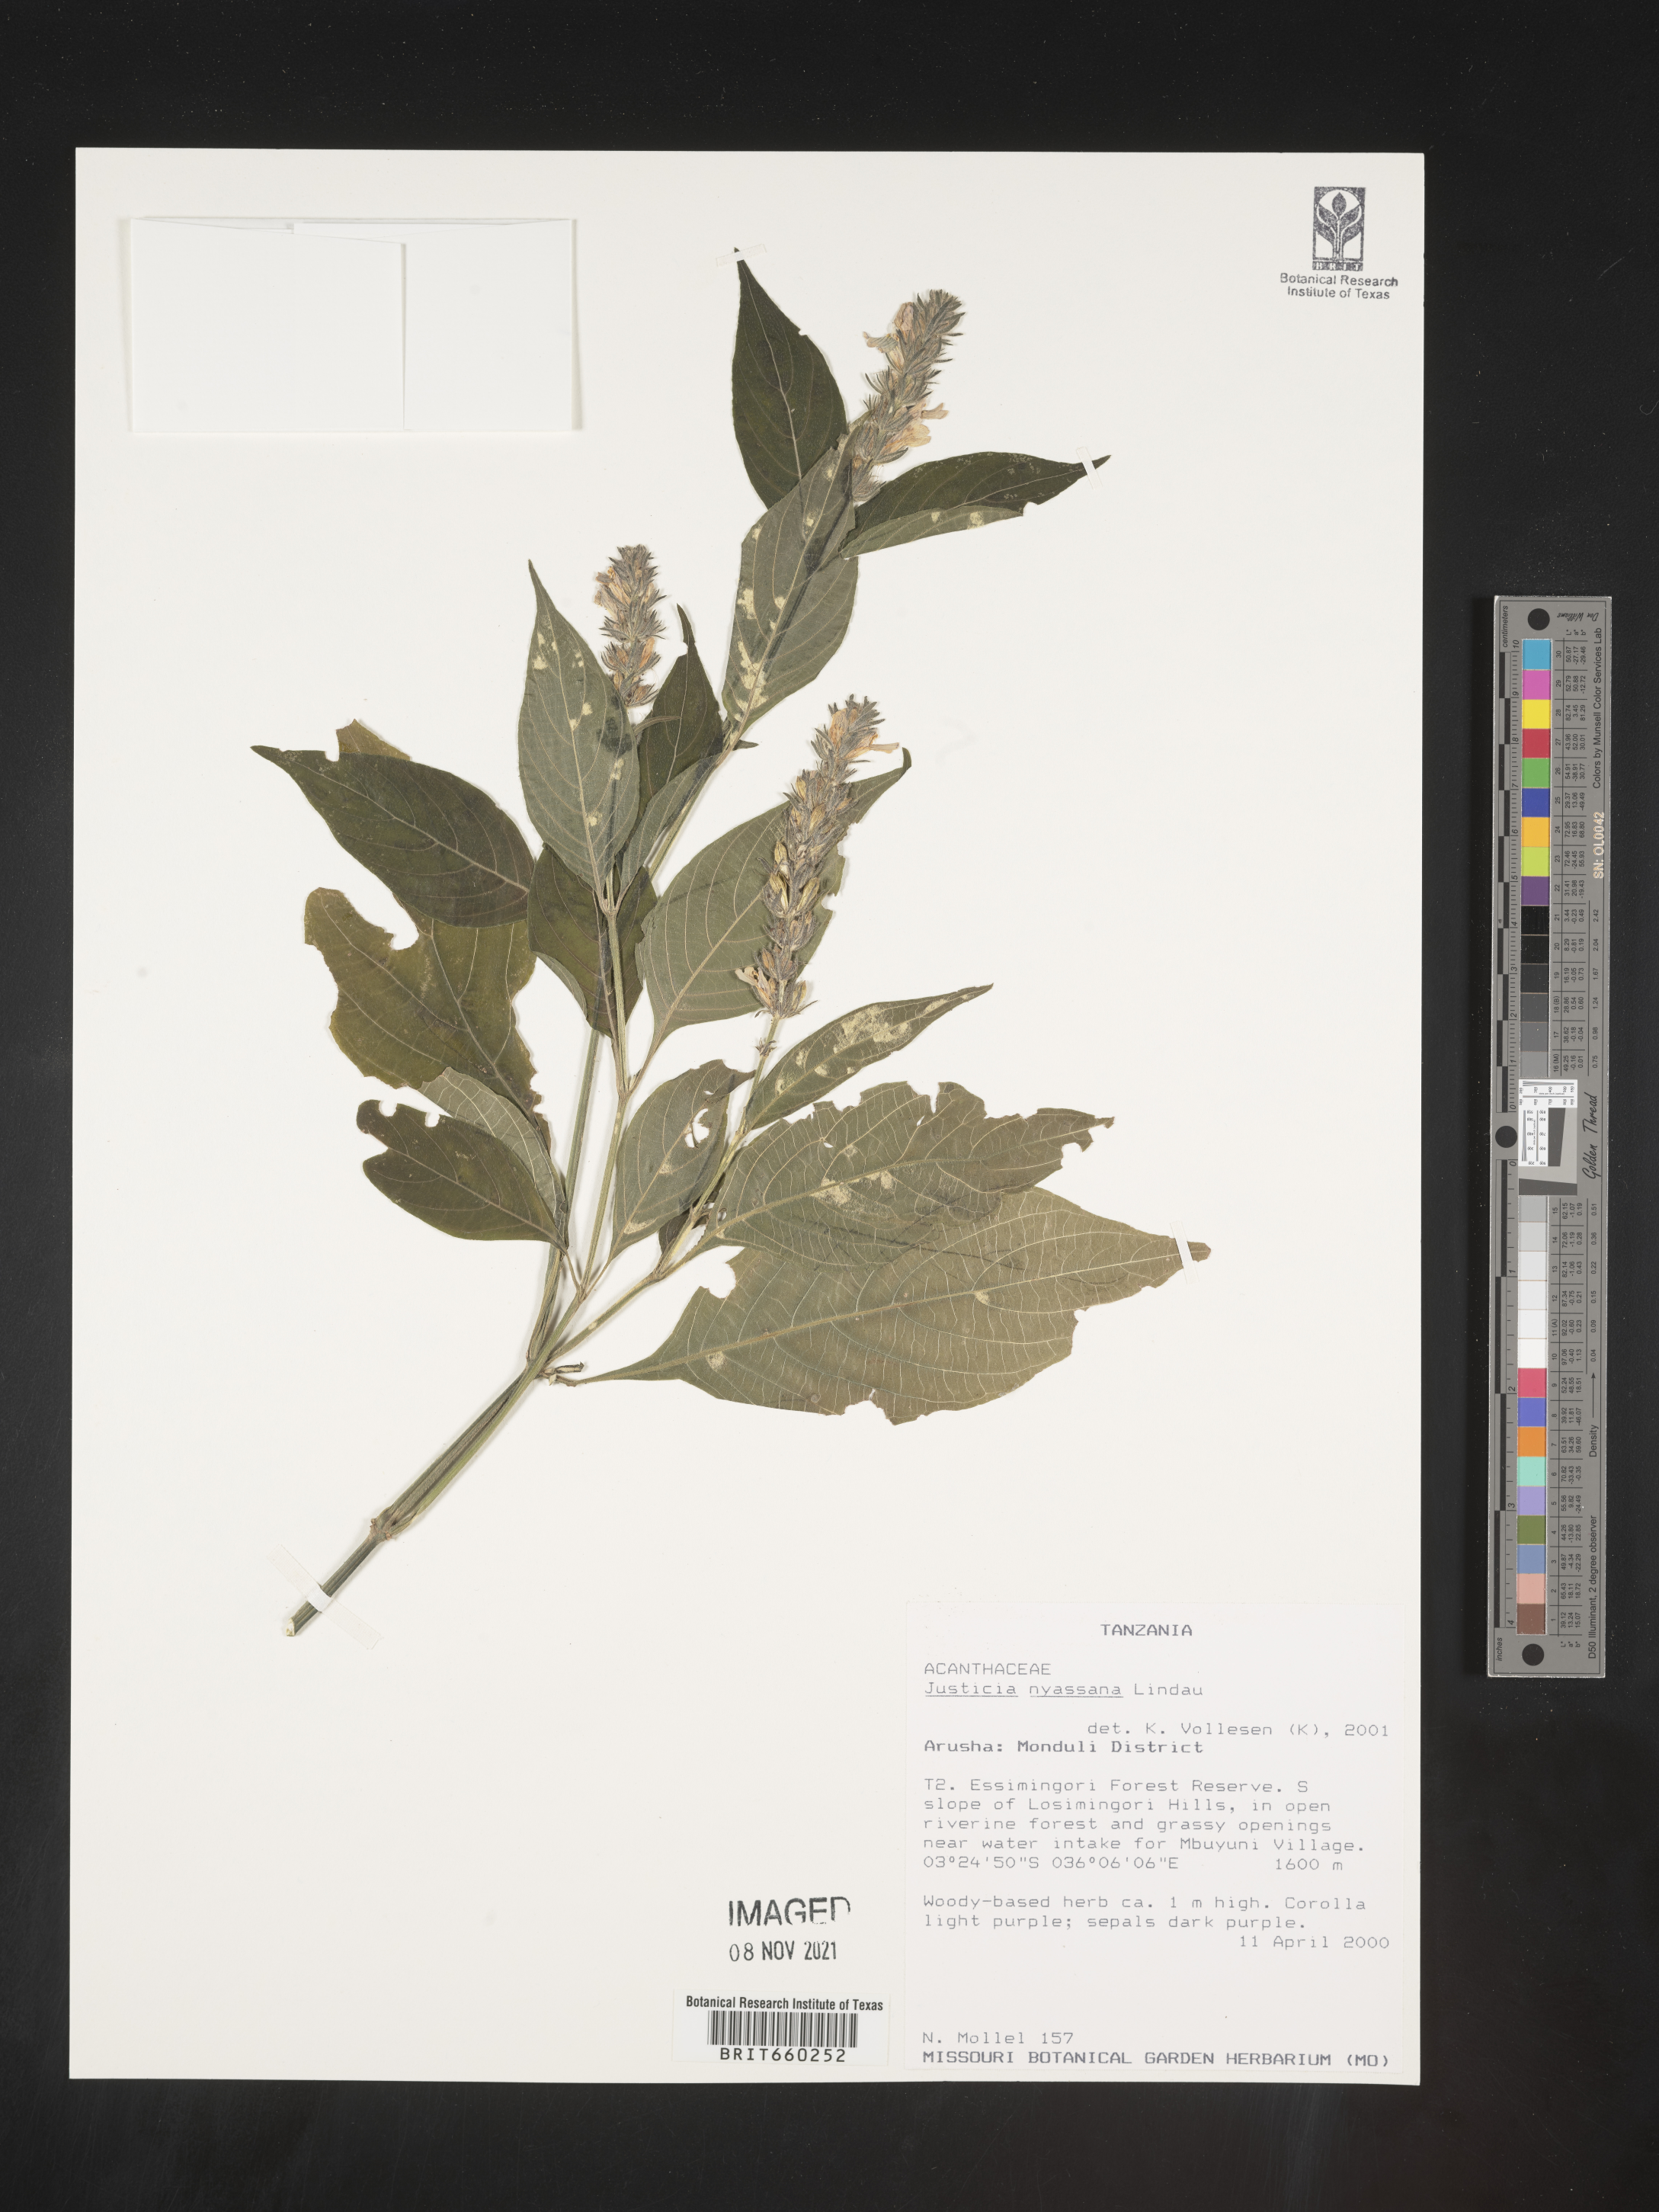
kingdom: Plantae
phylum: Tracheophyta
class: Magnoliopsida
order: Lamiales
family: Acanthaceae
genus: Justicia
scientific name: Justicia nyassana
